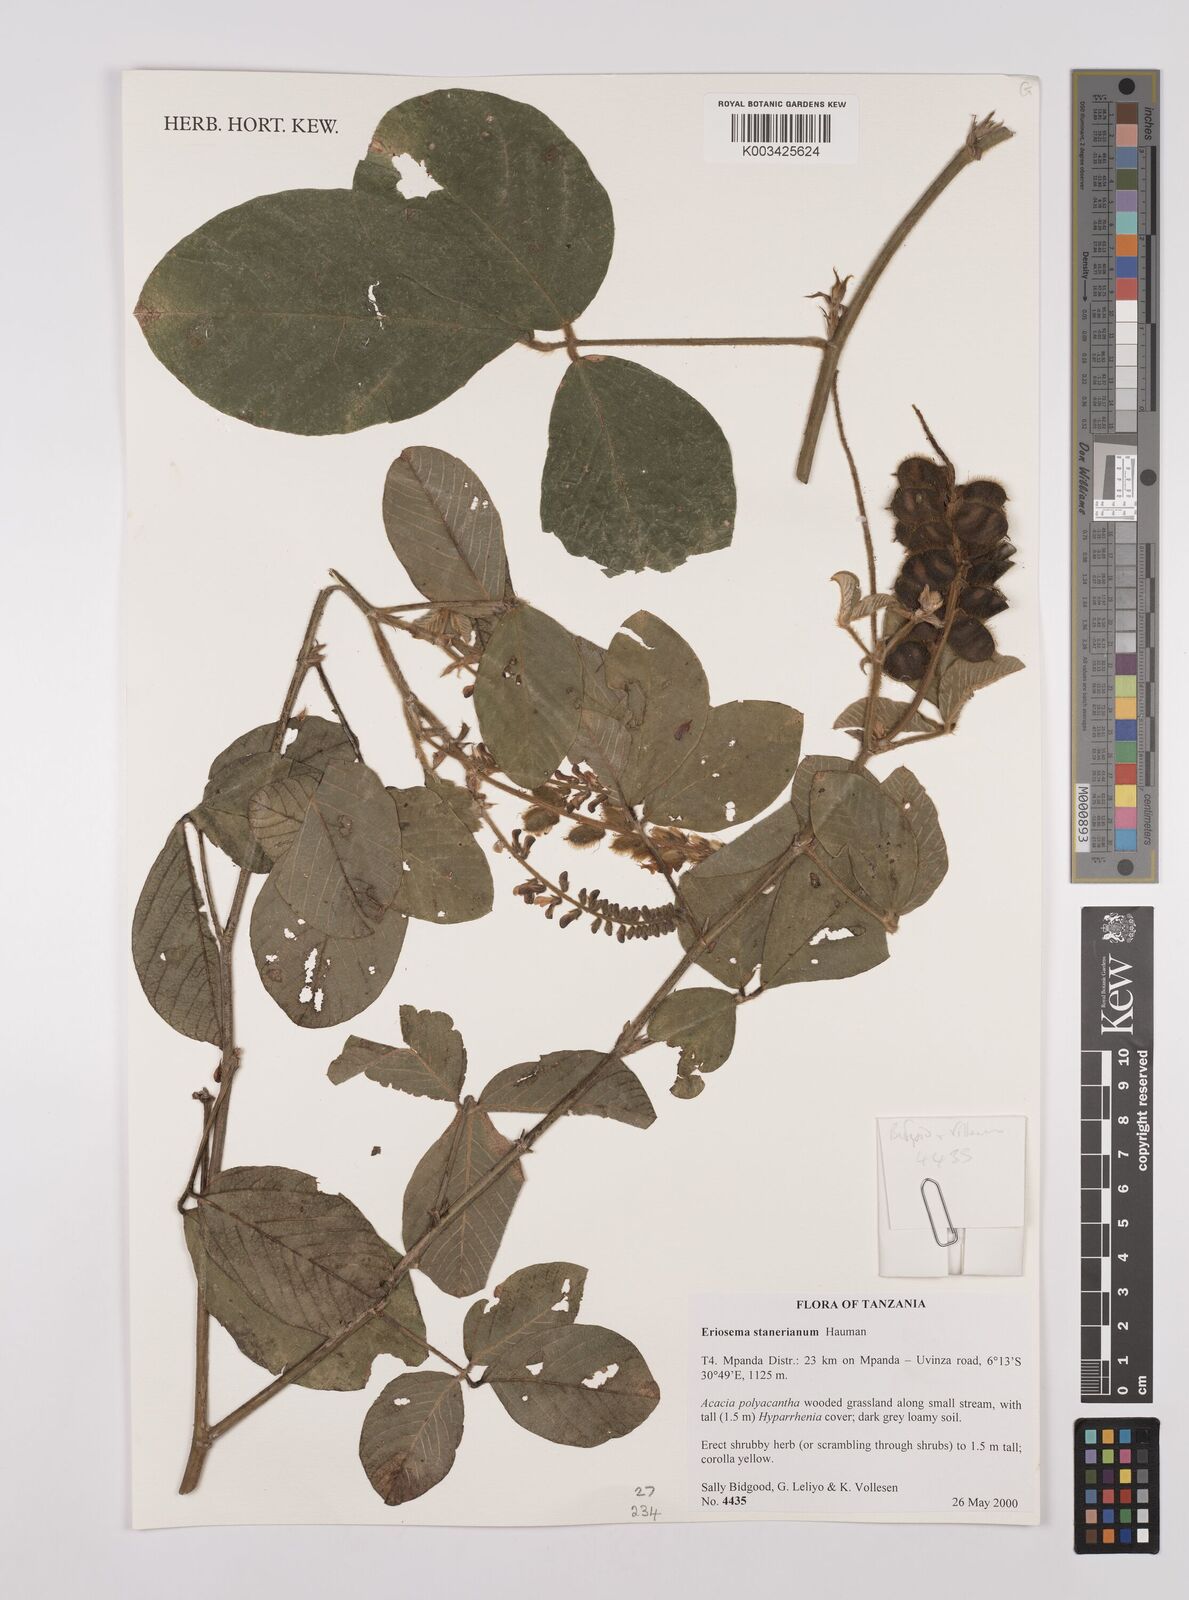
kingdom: Plantae
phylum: Tracheophyta
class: Magnoliopsida
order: Fabales
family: Fabaceae
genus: Eriosema
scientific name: Eriosema angolense
